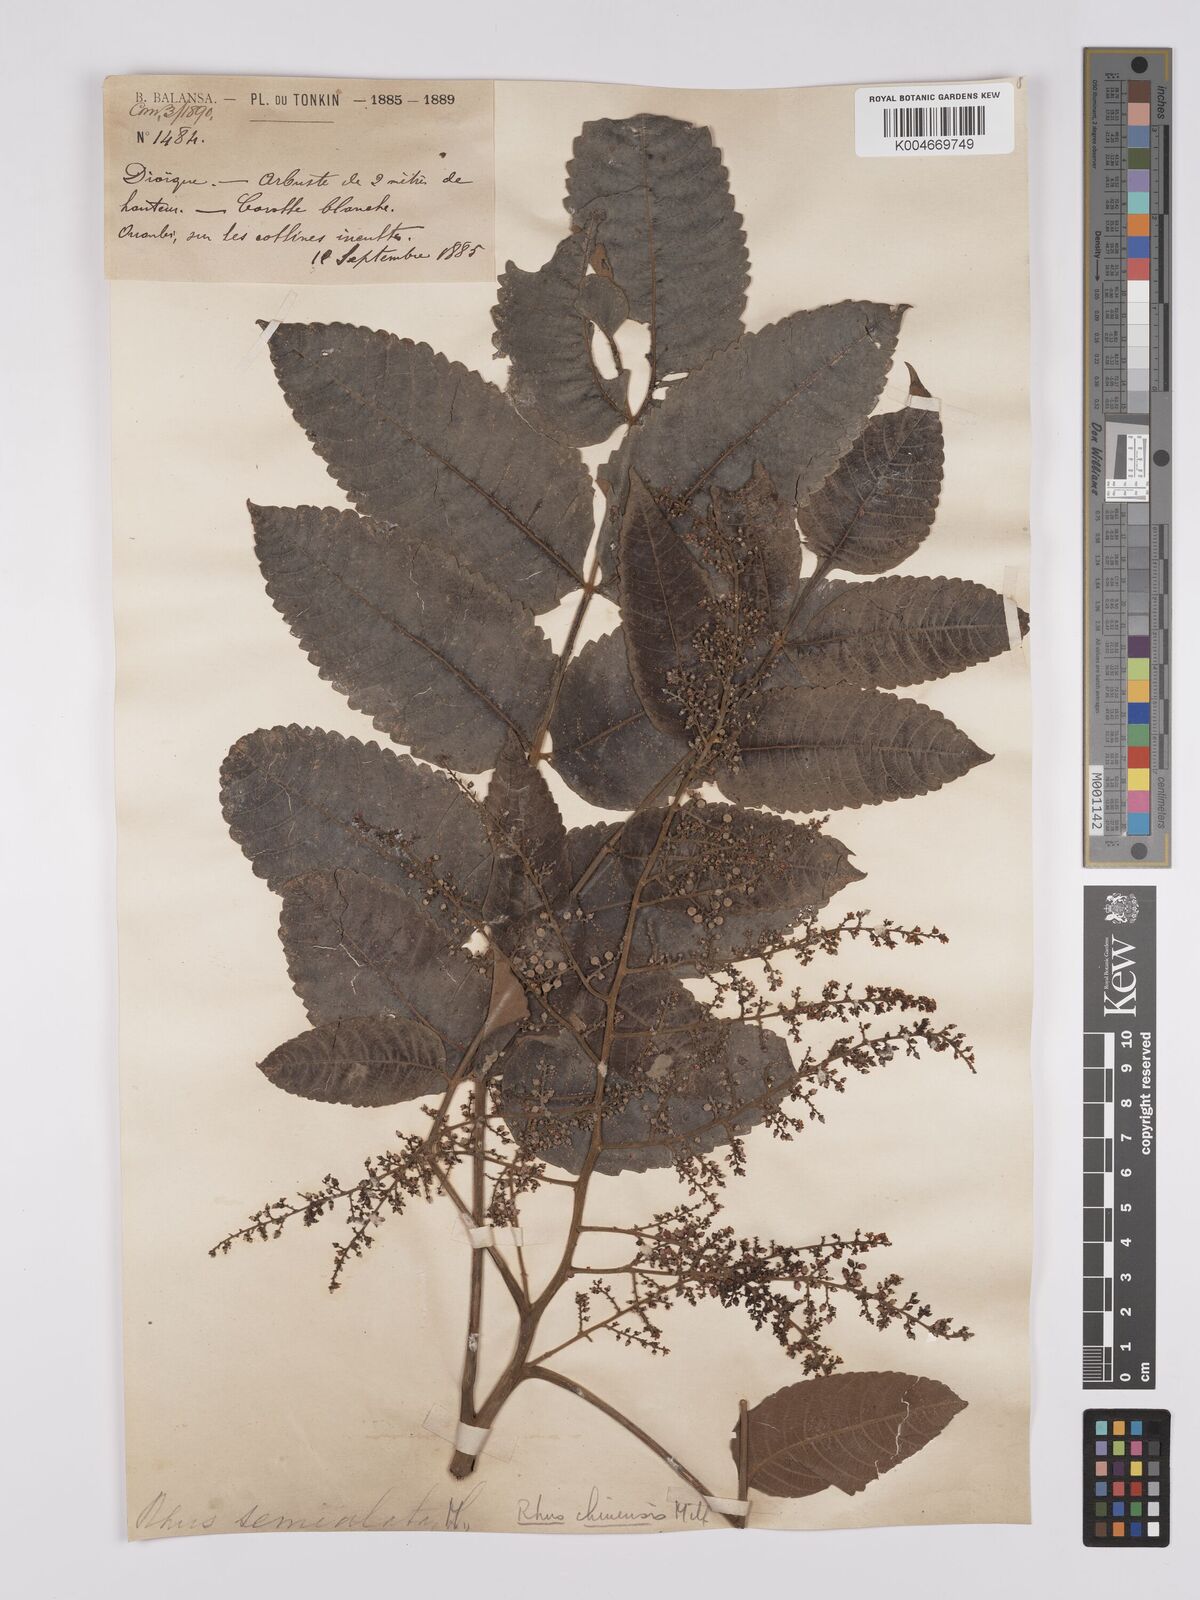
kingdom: Plantae
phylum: Tracheophyta
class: Magnoliopsida
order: Sapindales
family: Anacardiaceae
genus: Rhus
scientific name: Rhus chinensis
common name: Chinese gall
